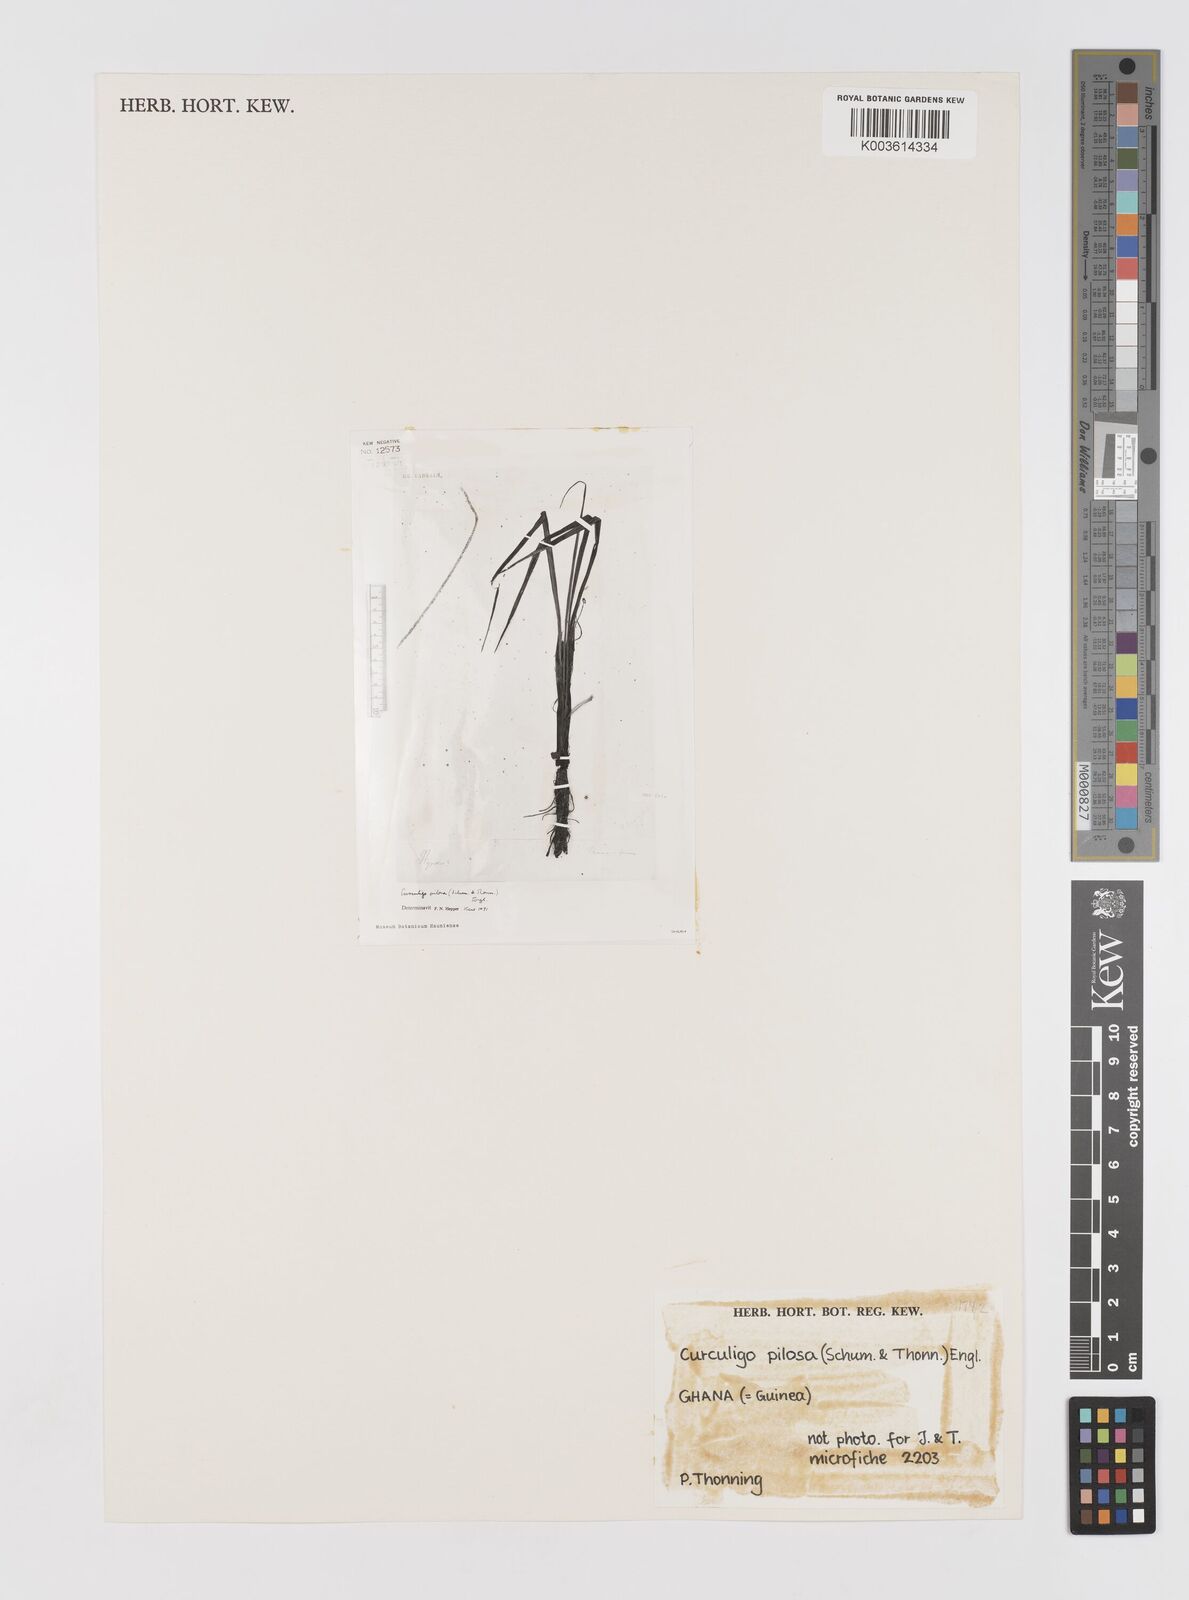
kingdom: Plantae
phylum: Tracheophyta
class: Liliopsida
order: Asparagales
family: Hypoxidaceae
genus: Curculigo
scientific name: Curculigo pilosa
